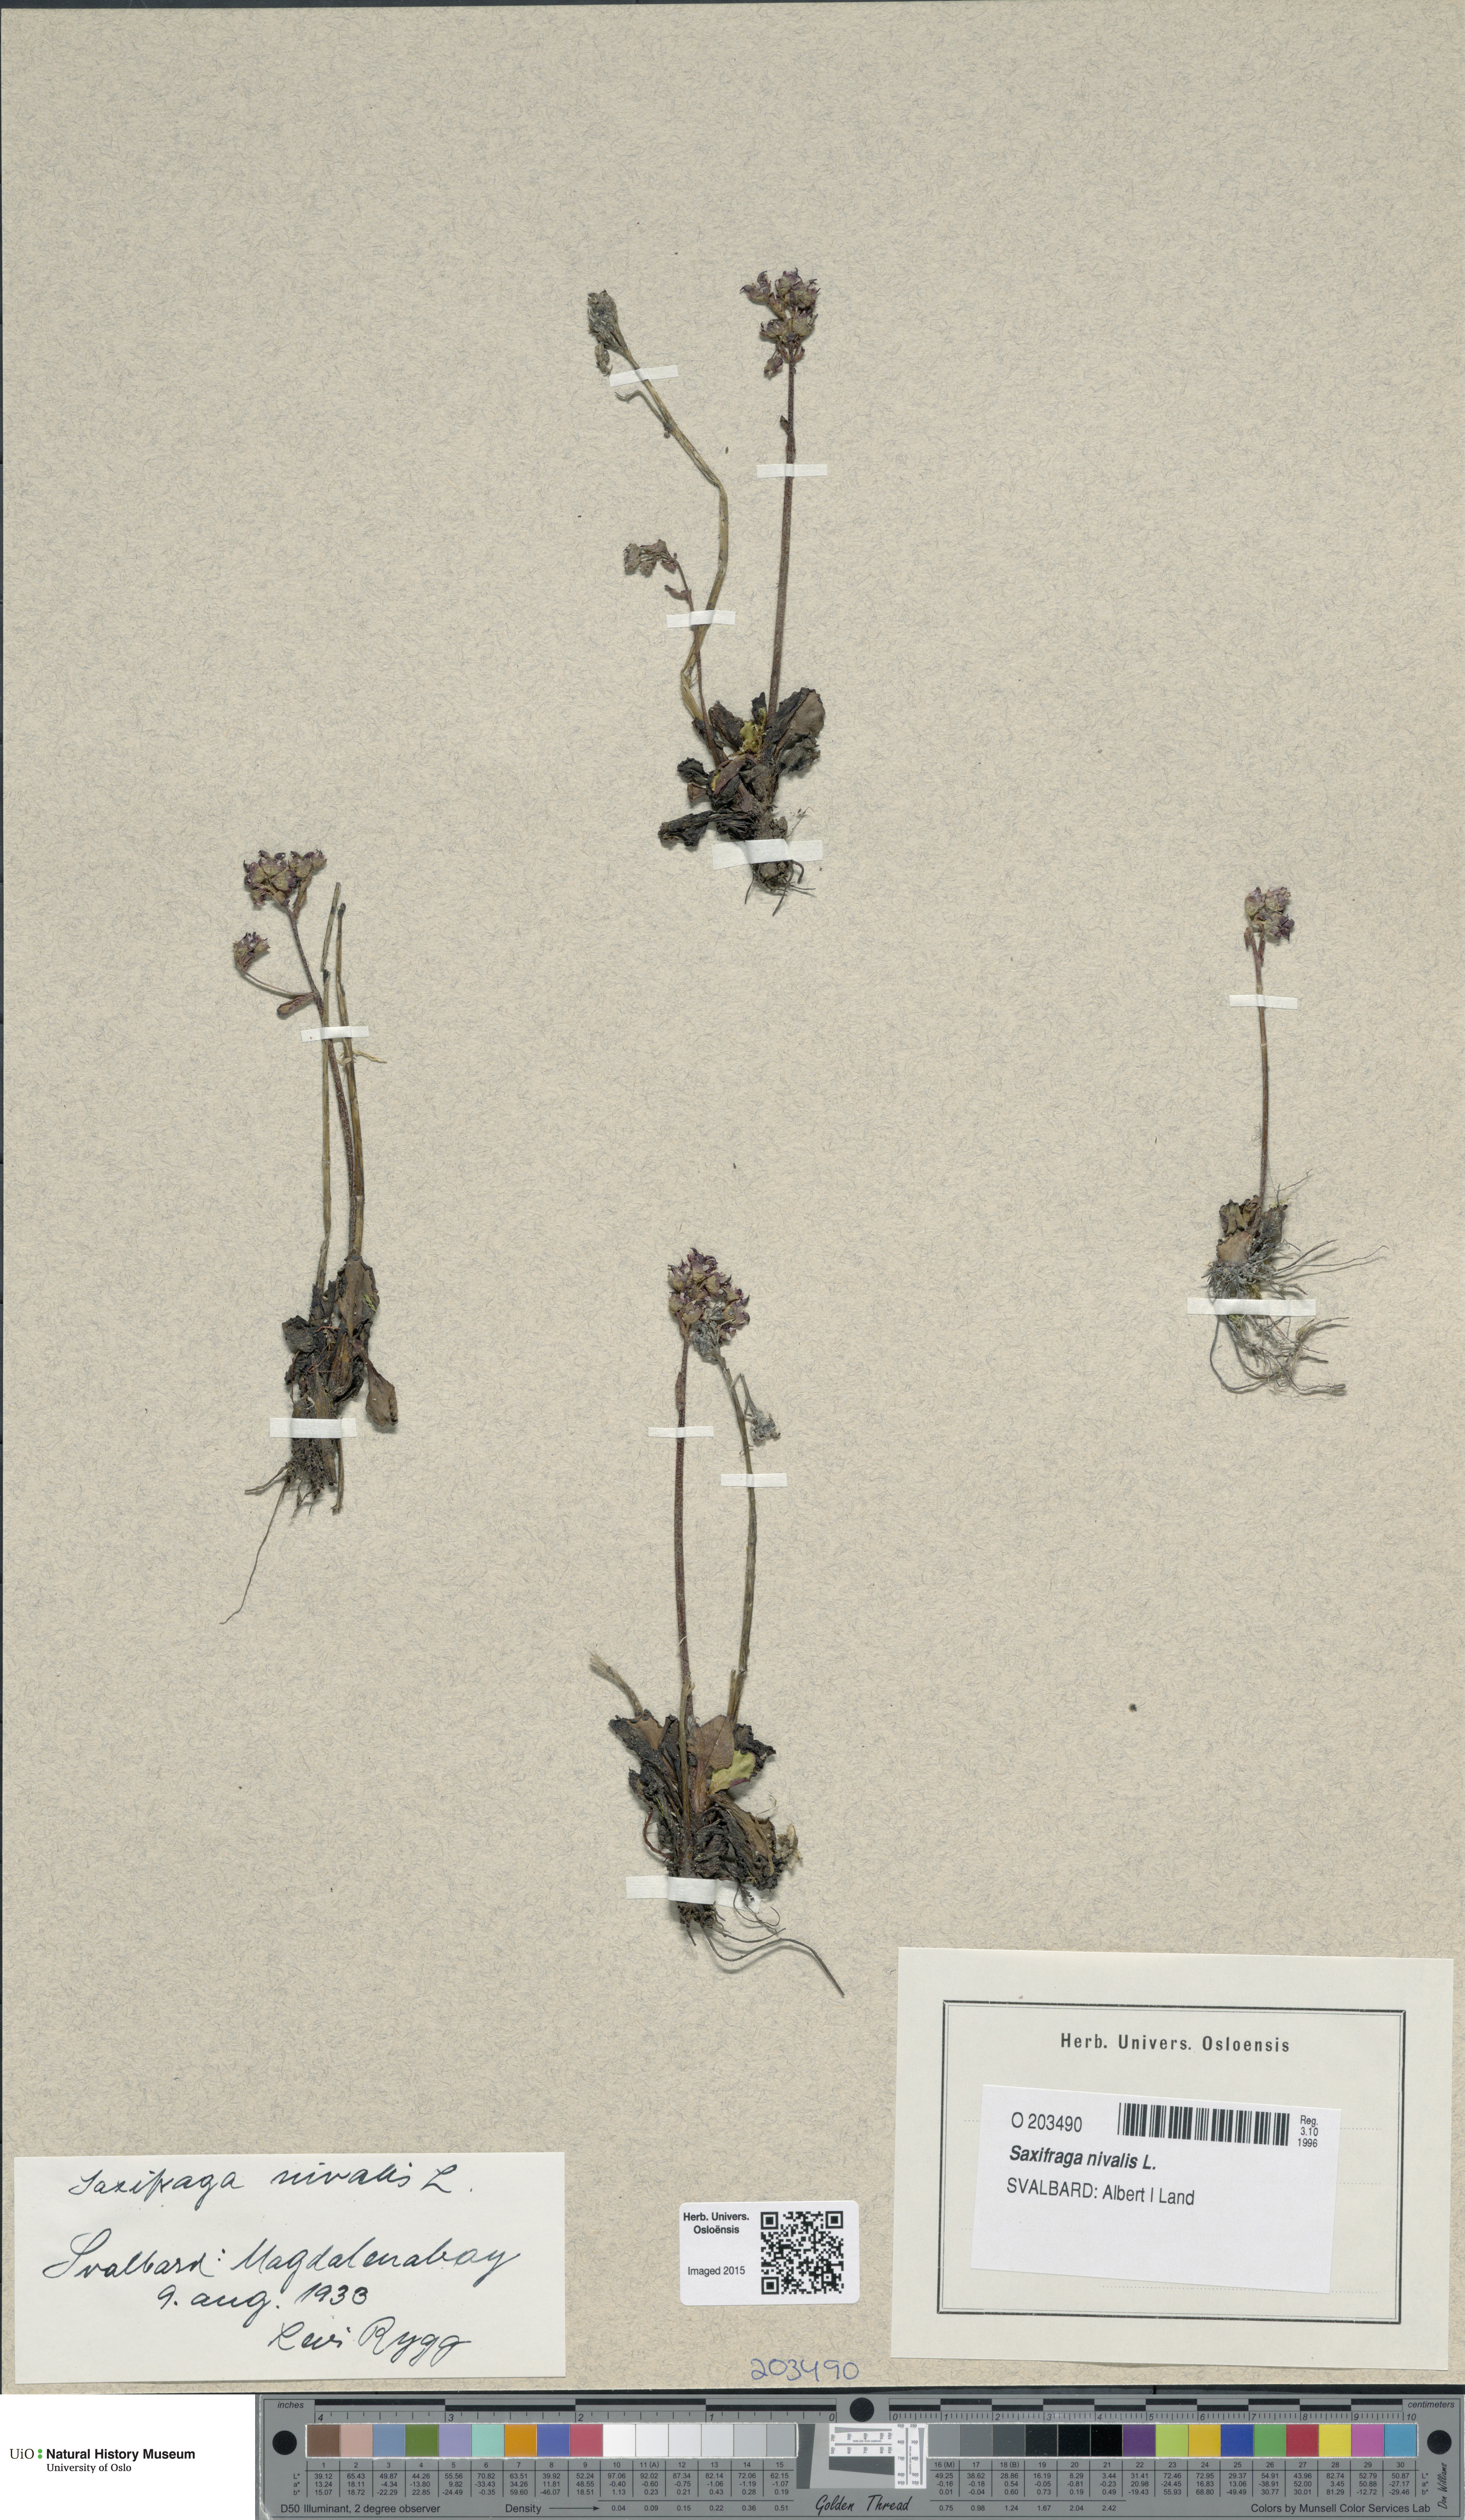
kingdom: Plantae
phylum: Tracheophyta
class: Magnoliopsida
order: Saxifragales
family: Saxifragaceae
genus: Micranthes
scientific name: Micranthes nivalis
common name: Alpine saxifrage
